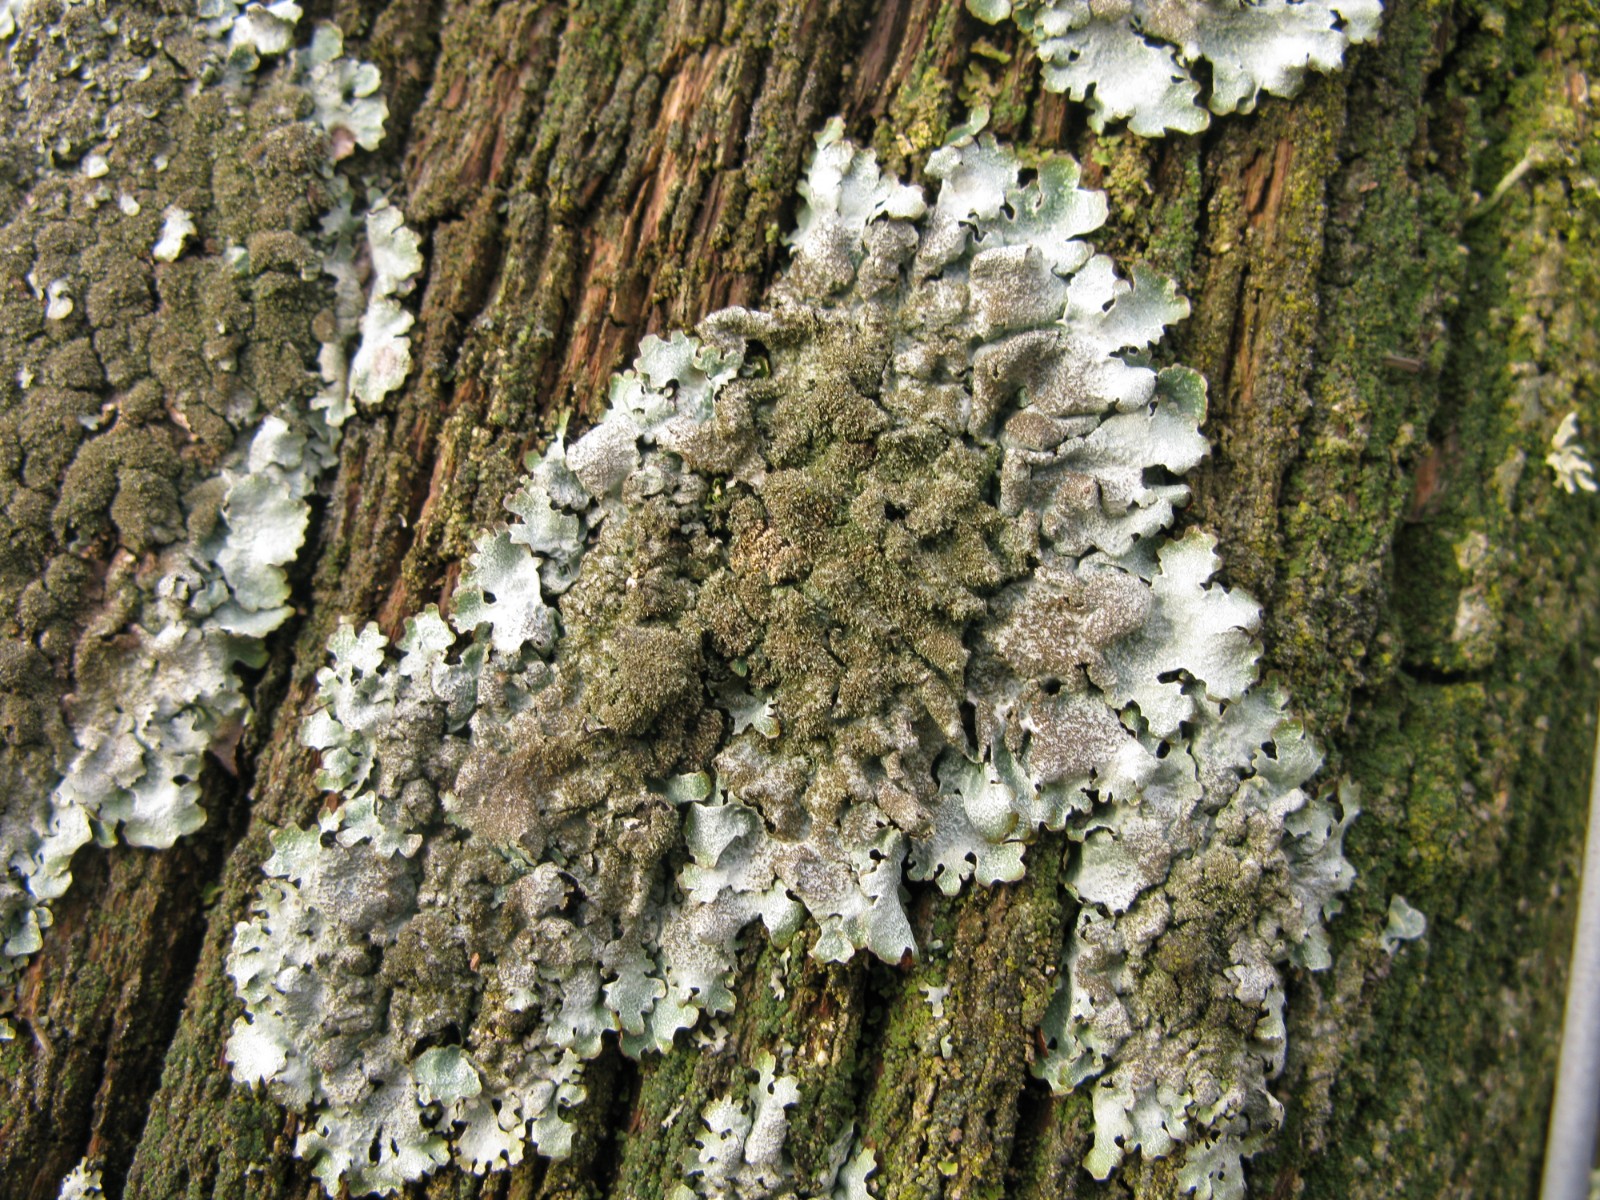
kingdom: Fungi
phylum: Ascomycota
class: Lecanoromycetes
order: Lecanorales
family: Parmeliaceae
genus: Parmelia
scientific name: Parmelia saxatilis
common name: farve-skållav
